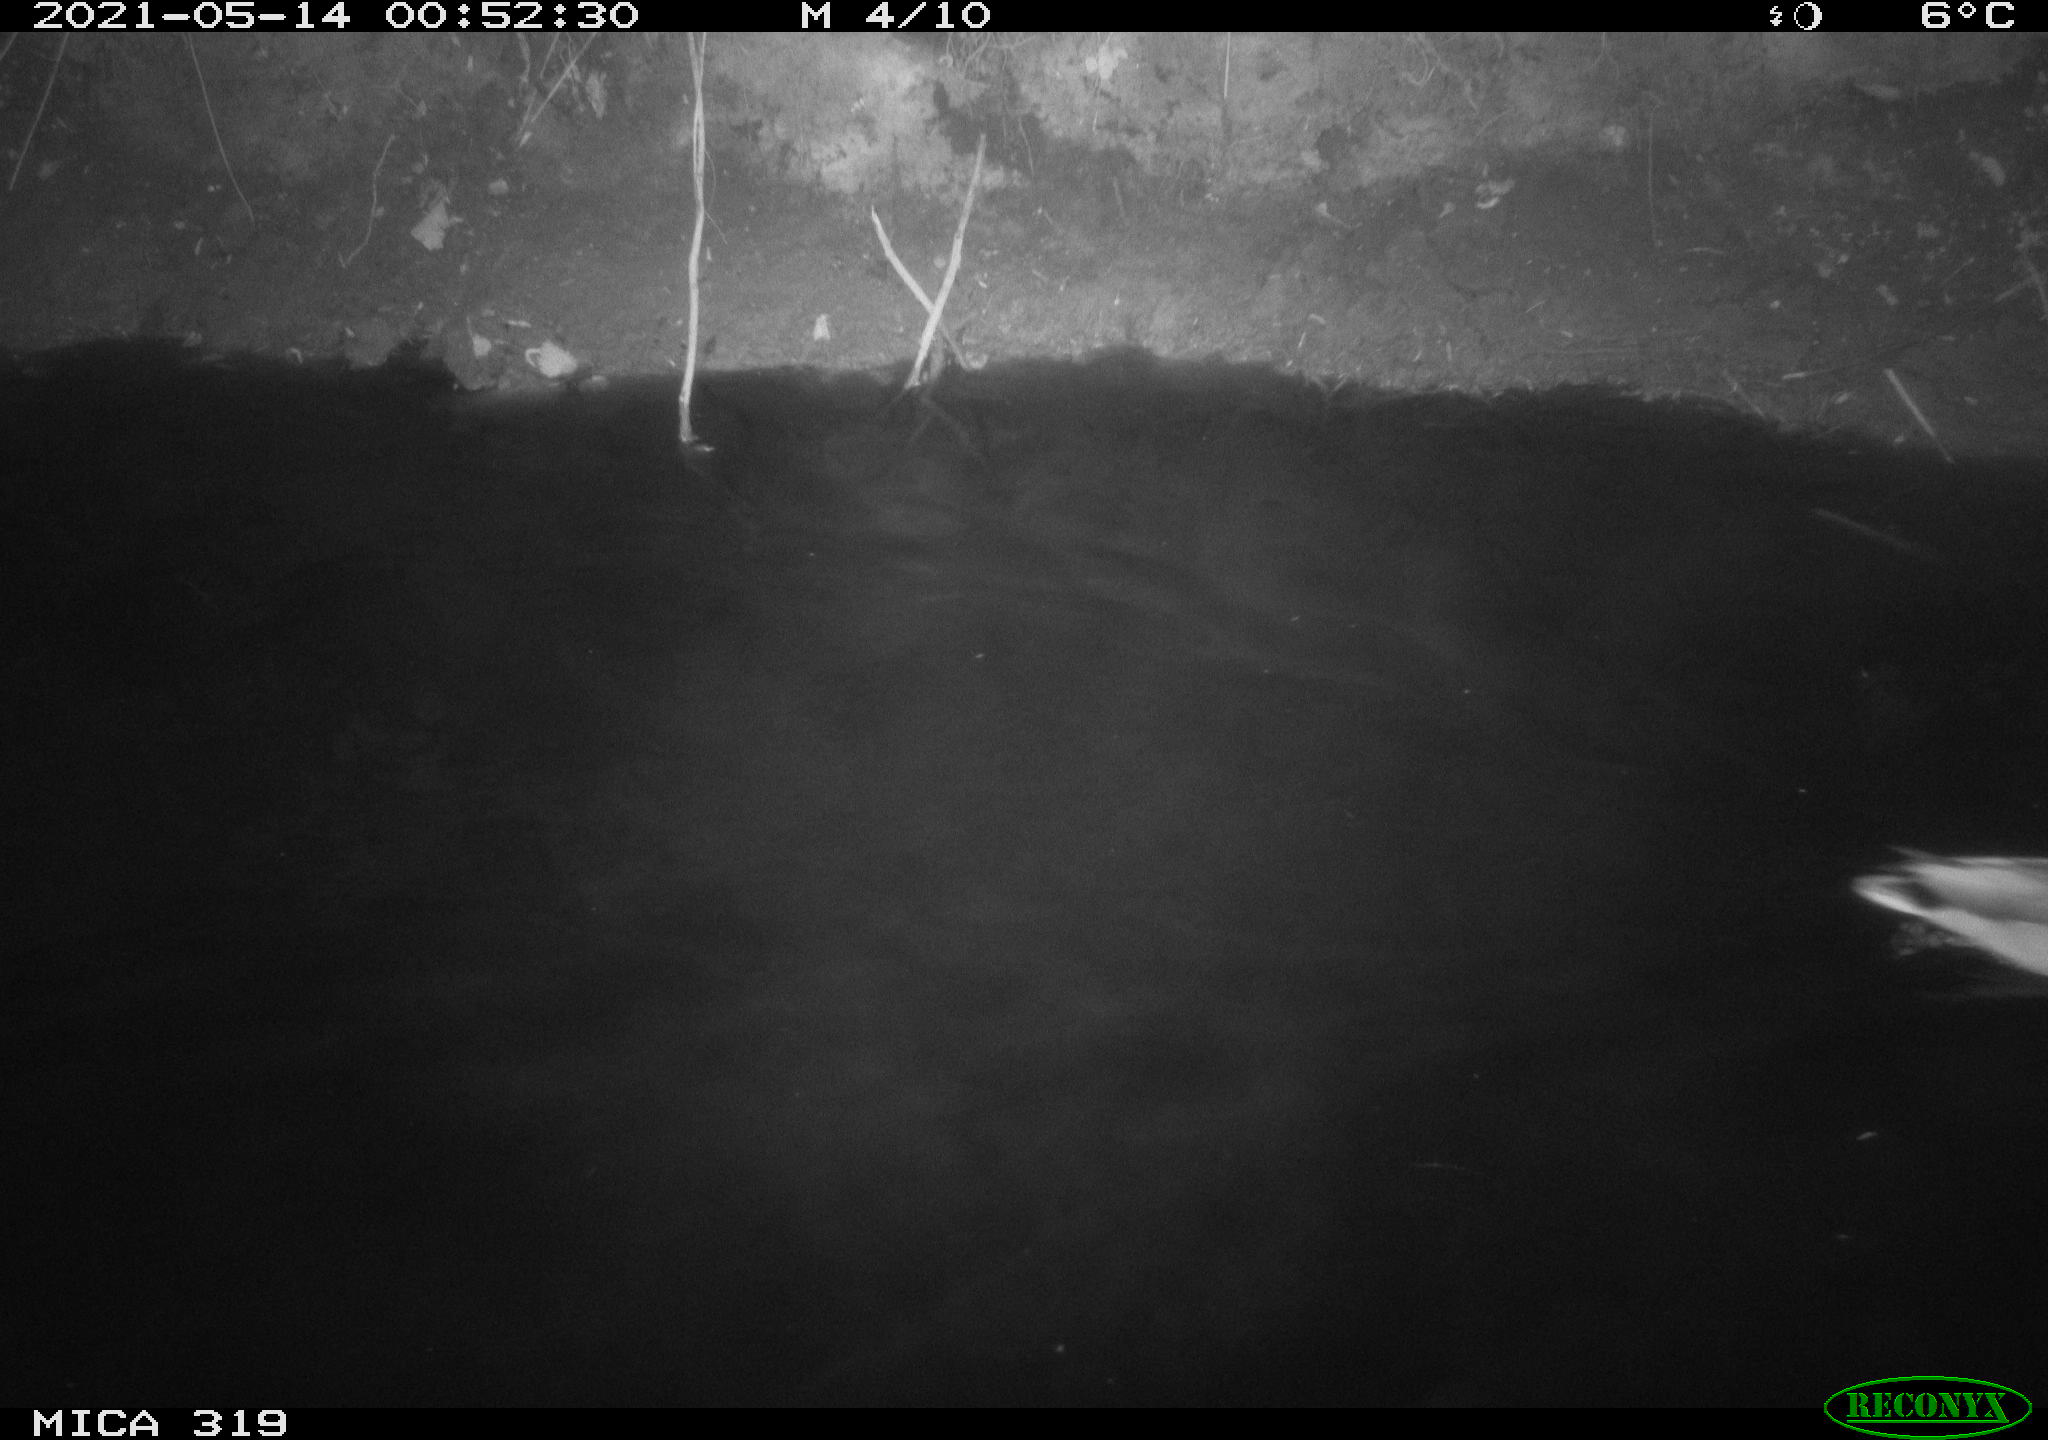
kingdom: Animalia
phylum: Chordata
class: Aves
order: Anseriformes
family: Anatidae
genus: Anas
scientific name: Anas platyrhynchos
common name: Mallard
